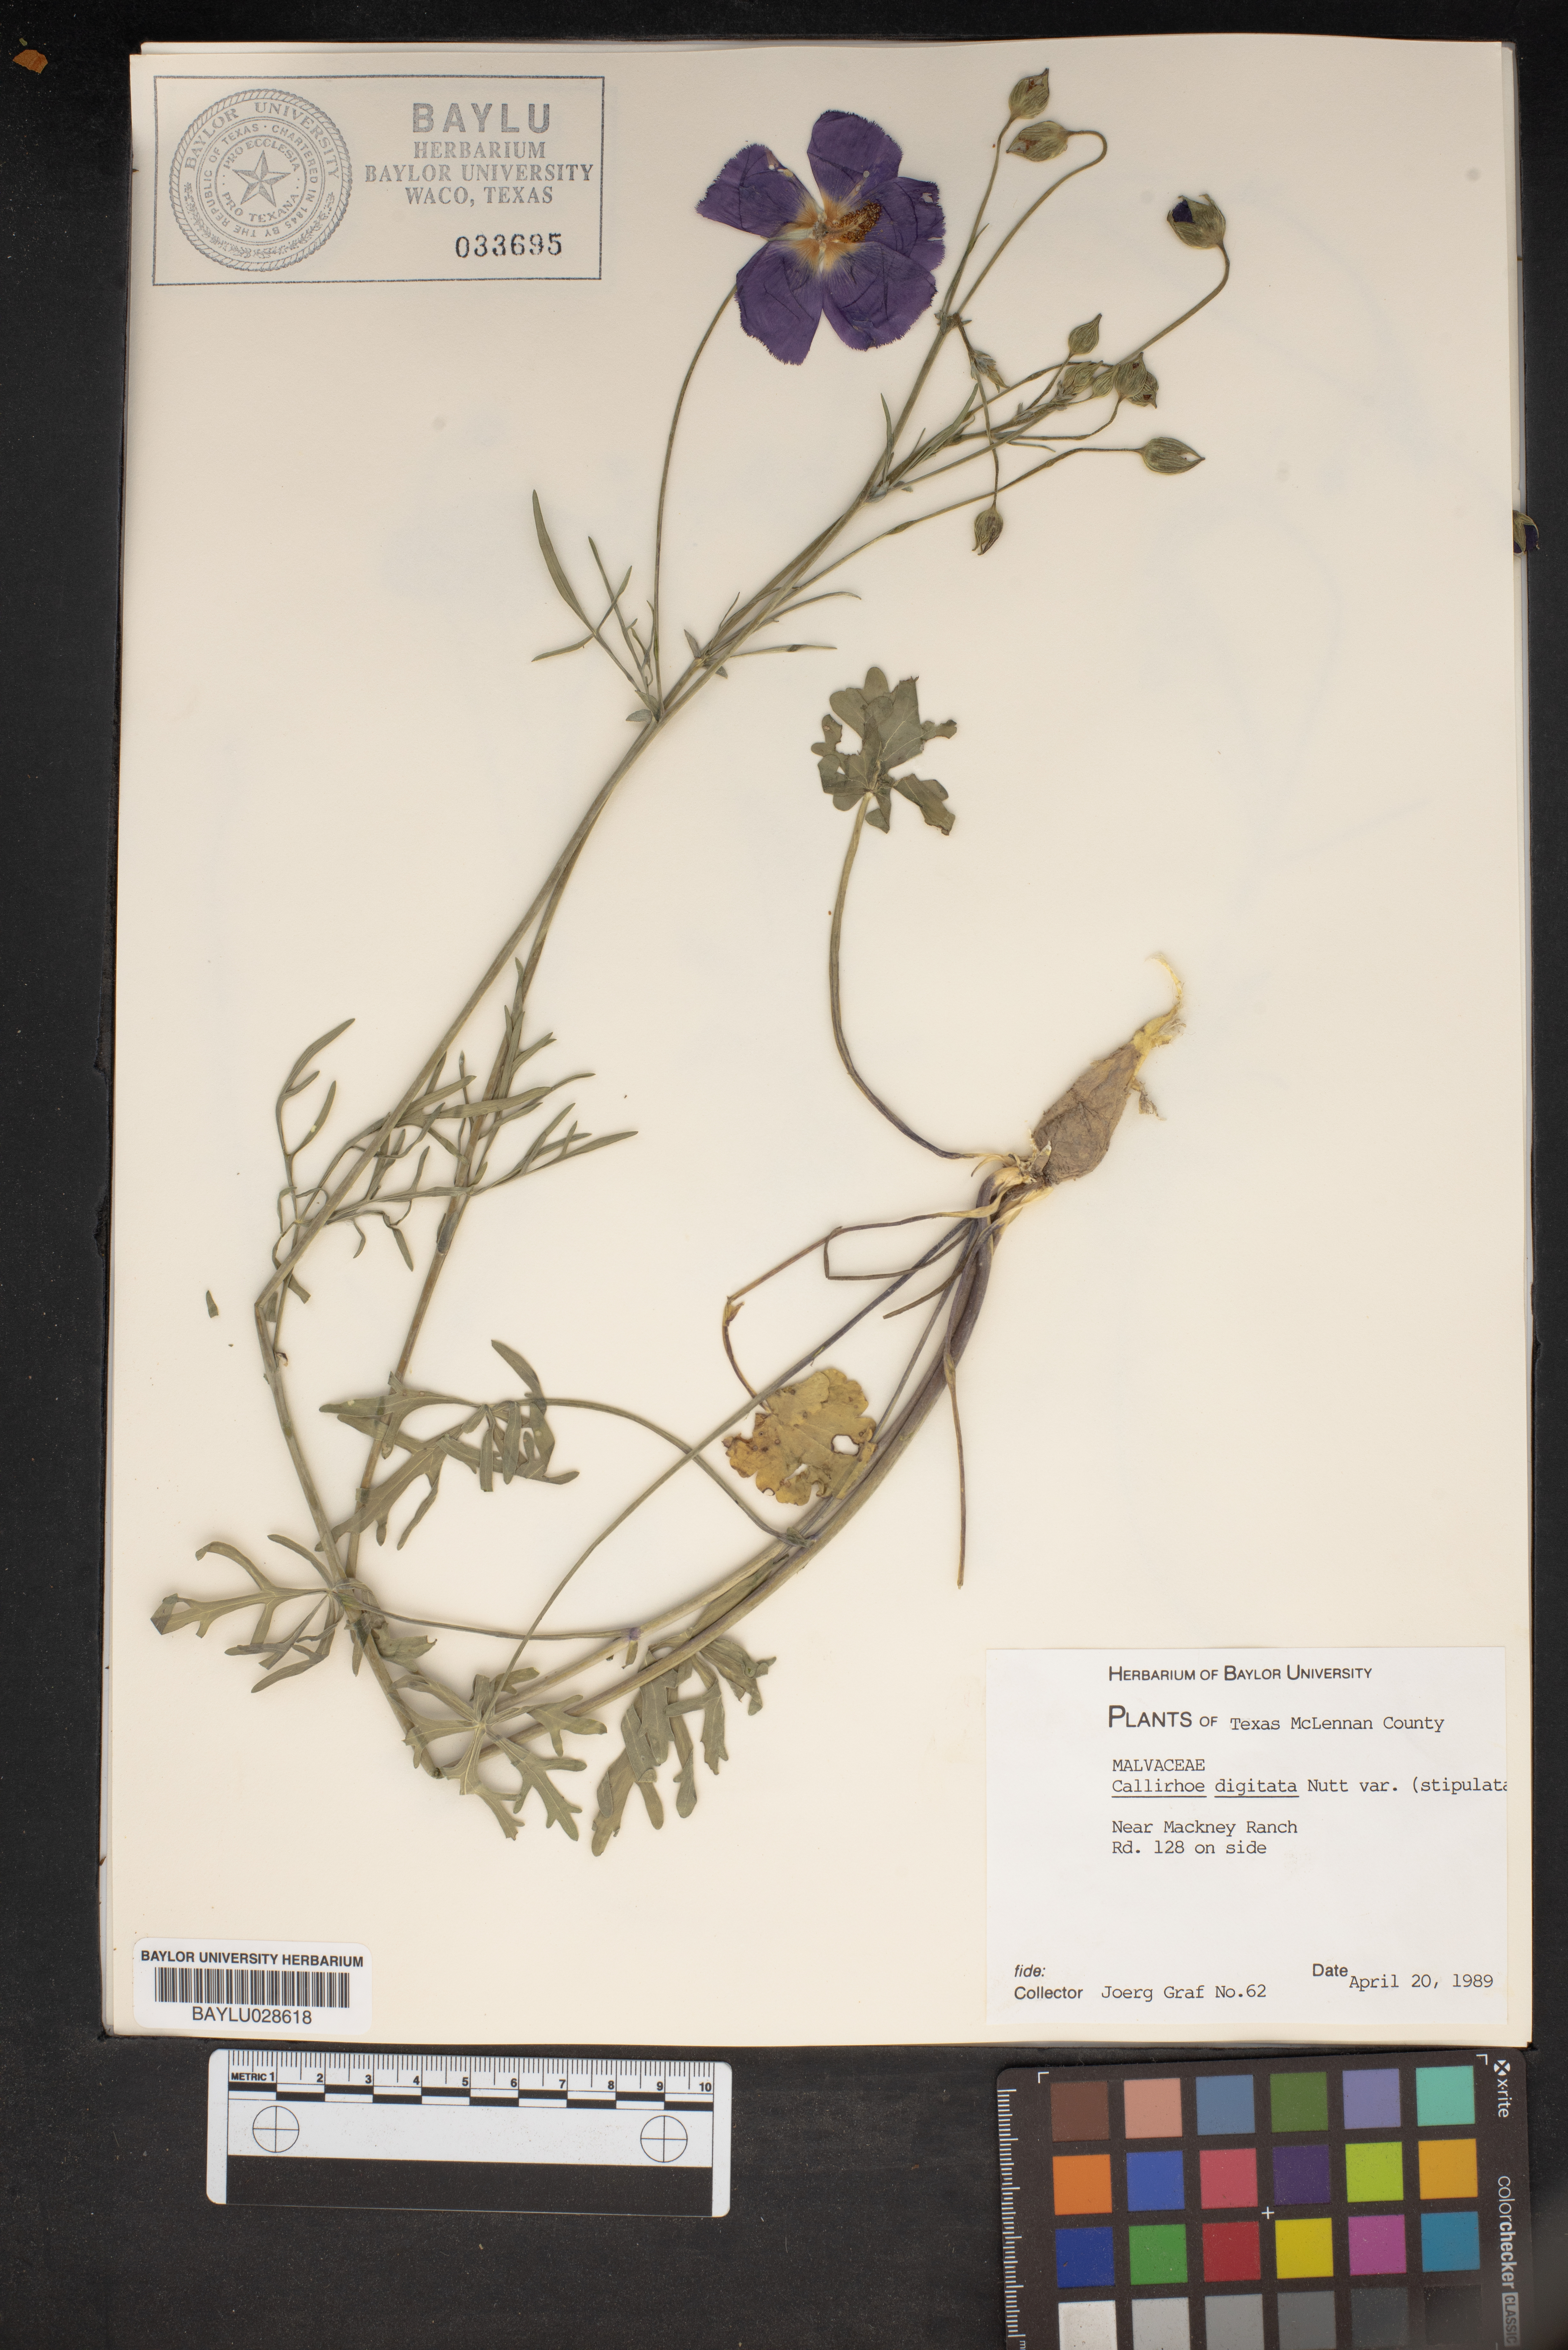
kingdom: Plantae
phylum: Tracheophyta
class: Magnoliopsida
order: Malvales
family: Malvaceae
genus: Callirhoe
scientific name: Callirhoe pedata
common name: Finger poppy-mallow
